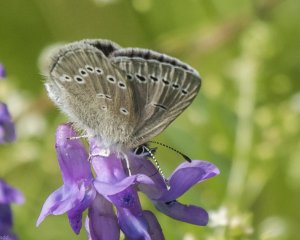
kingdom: Animalia
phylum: Arthropoda
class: Insecta
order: Lepidoptera
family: Lycaenidae
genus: Glaucopsyche
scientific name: Glaucopsyche lygdamus
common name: Silvery Blue
